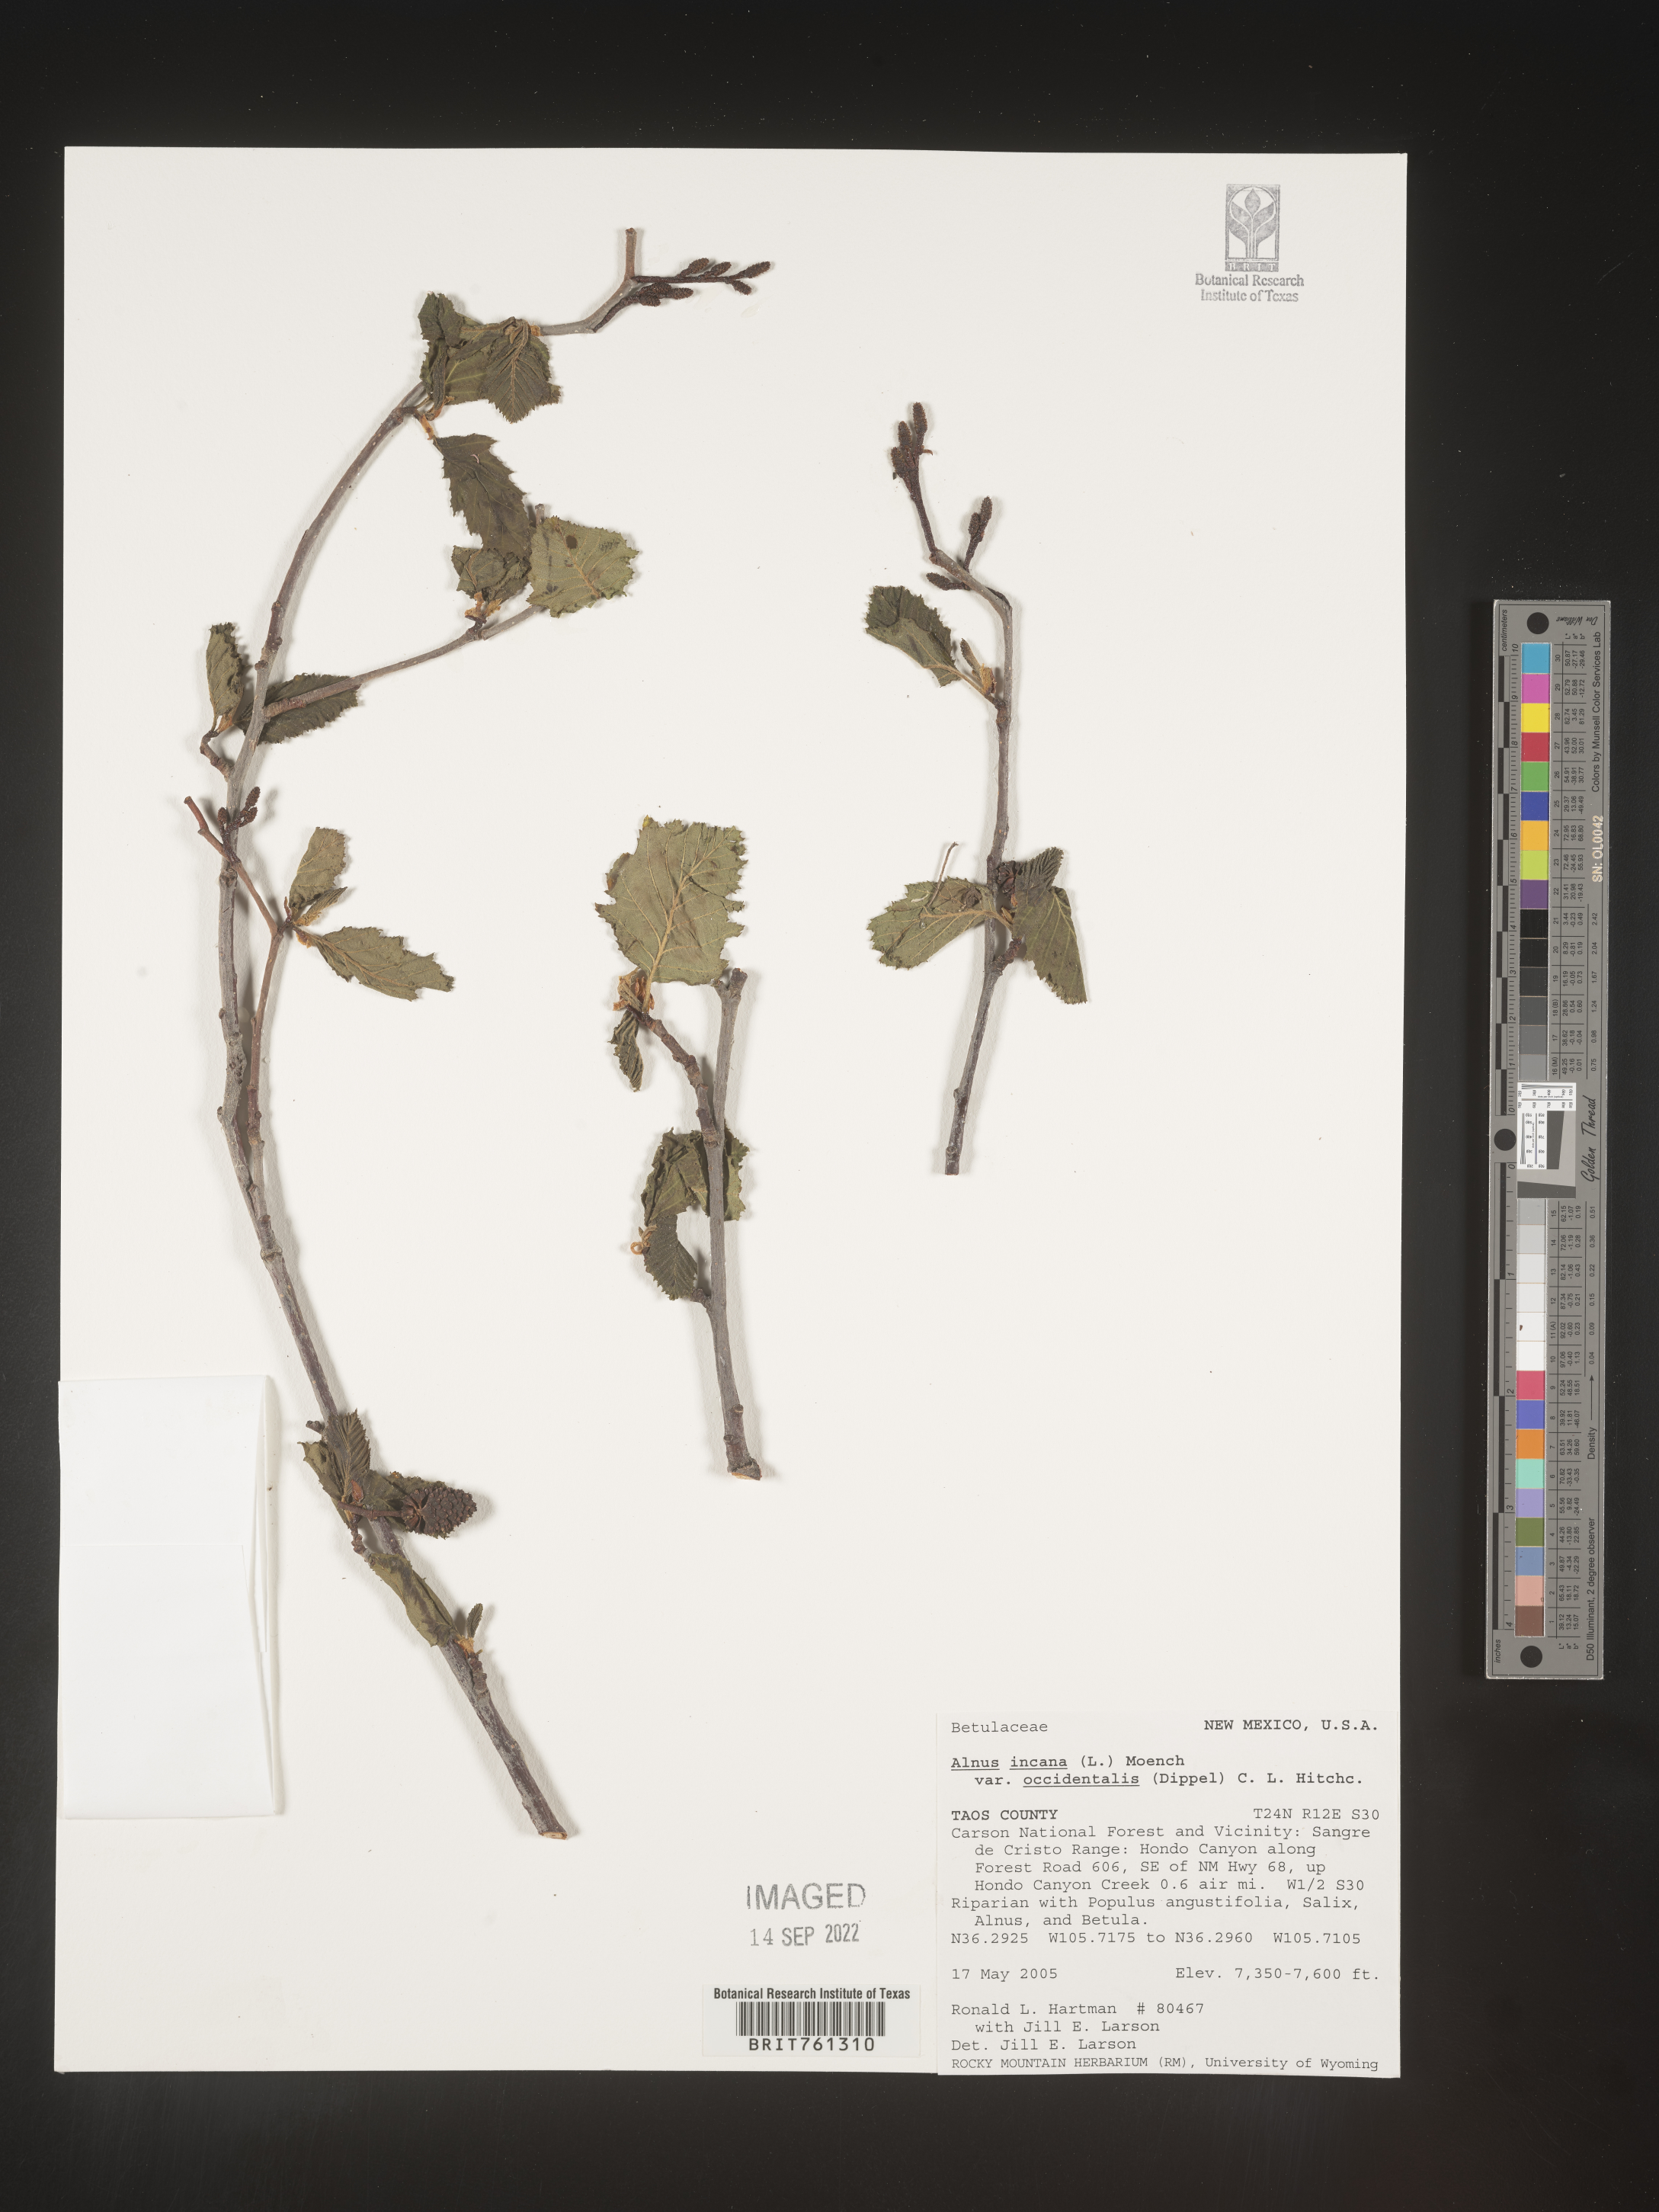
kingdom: Plantae
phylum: Tracheophyta
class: Magnoliopsida
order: Fagales
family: Betulaceae
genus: Alnus
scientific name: Alnus incana
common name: Grey alder
